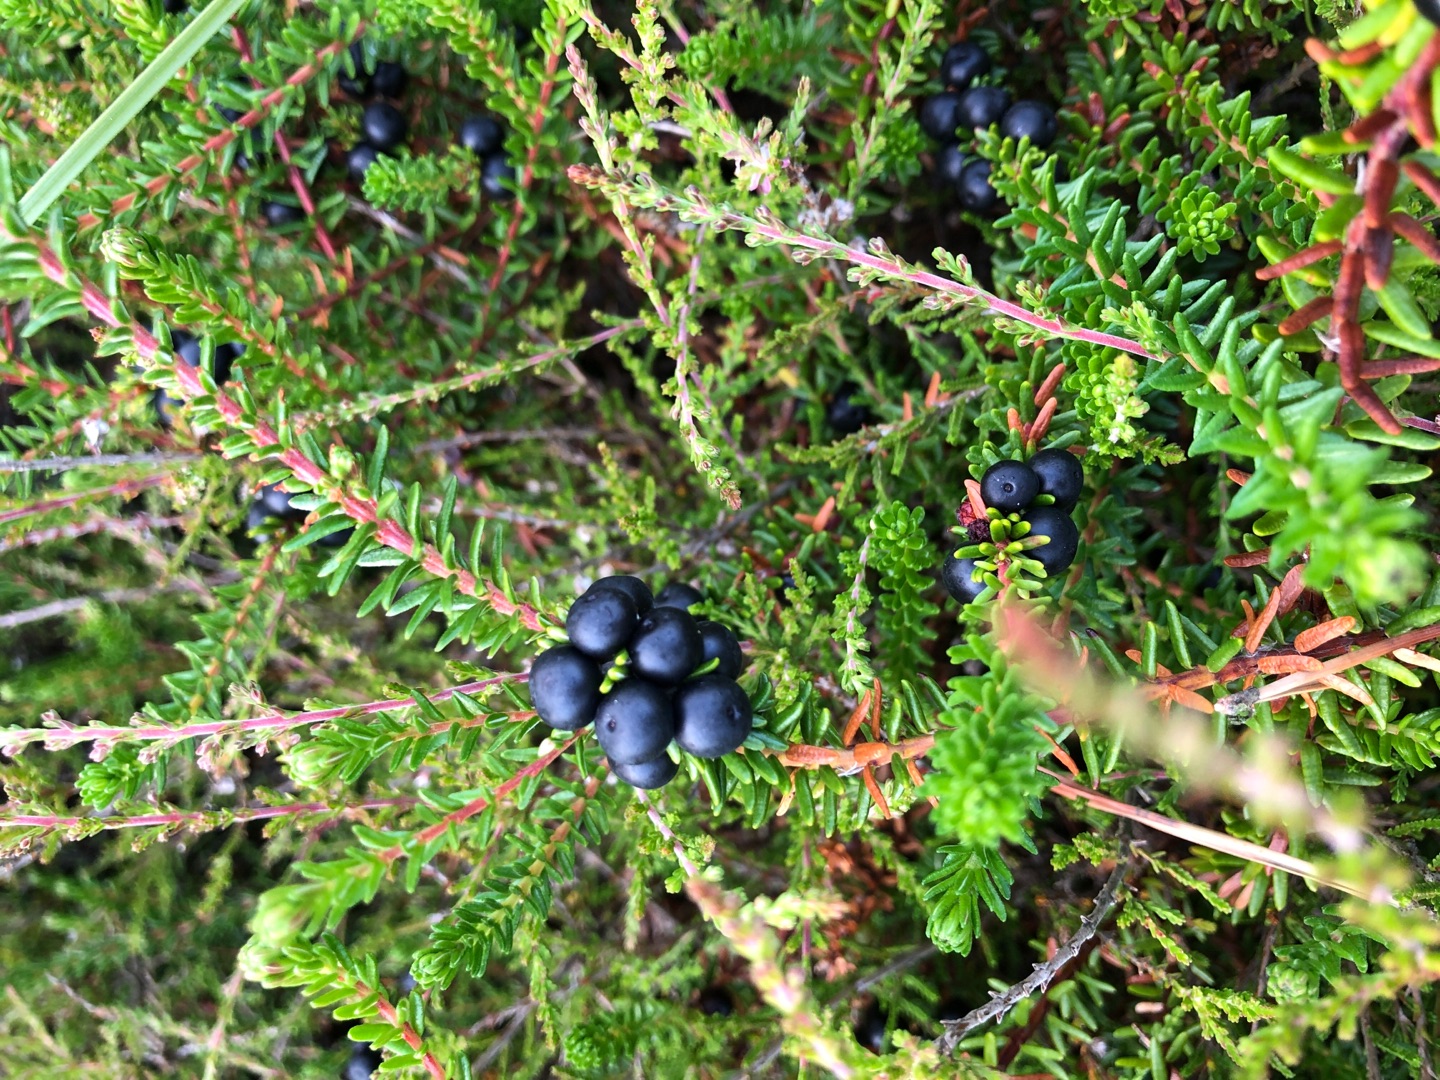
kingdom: Plantae
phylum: Tracheophyta
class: Magnoliopsida
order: Ericales
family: Ericaceae
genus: Empetrum
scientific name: Empetrum nigrum
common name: Revling
